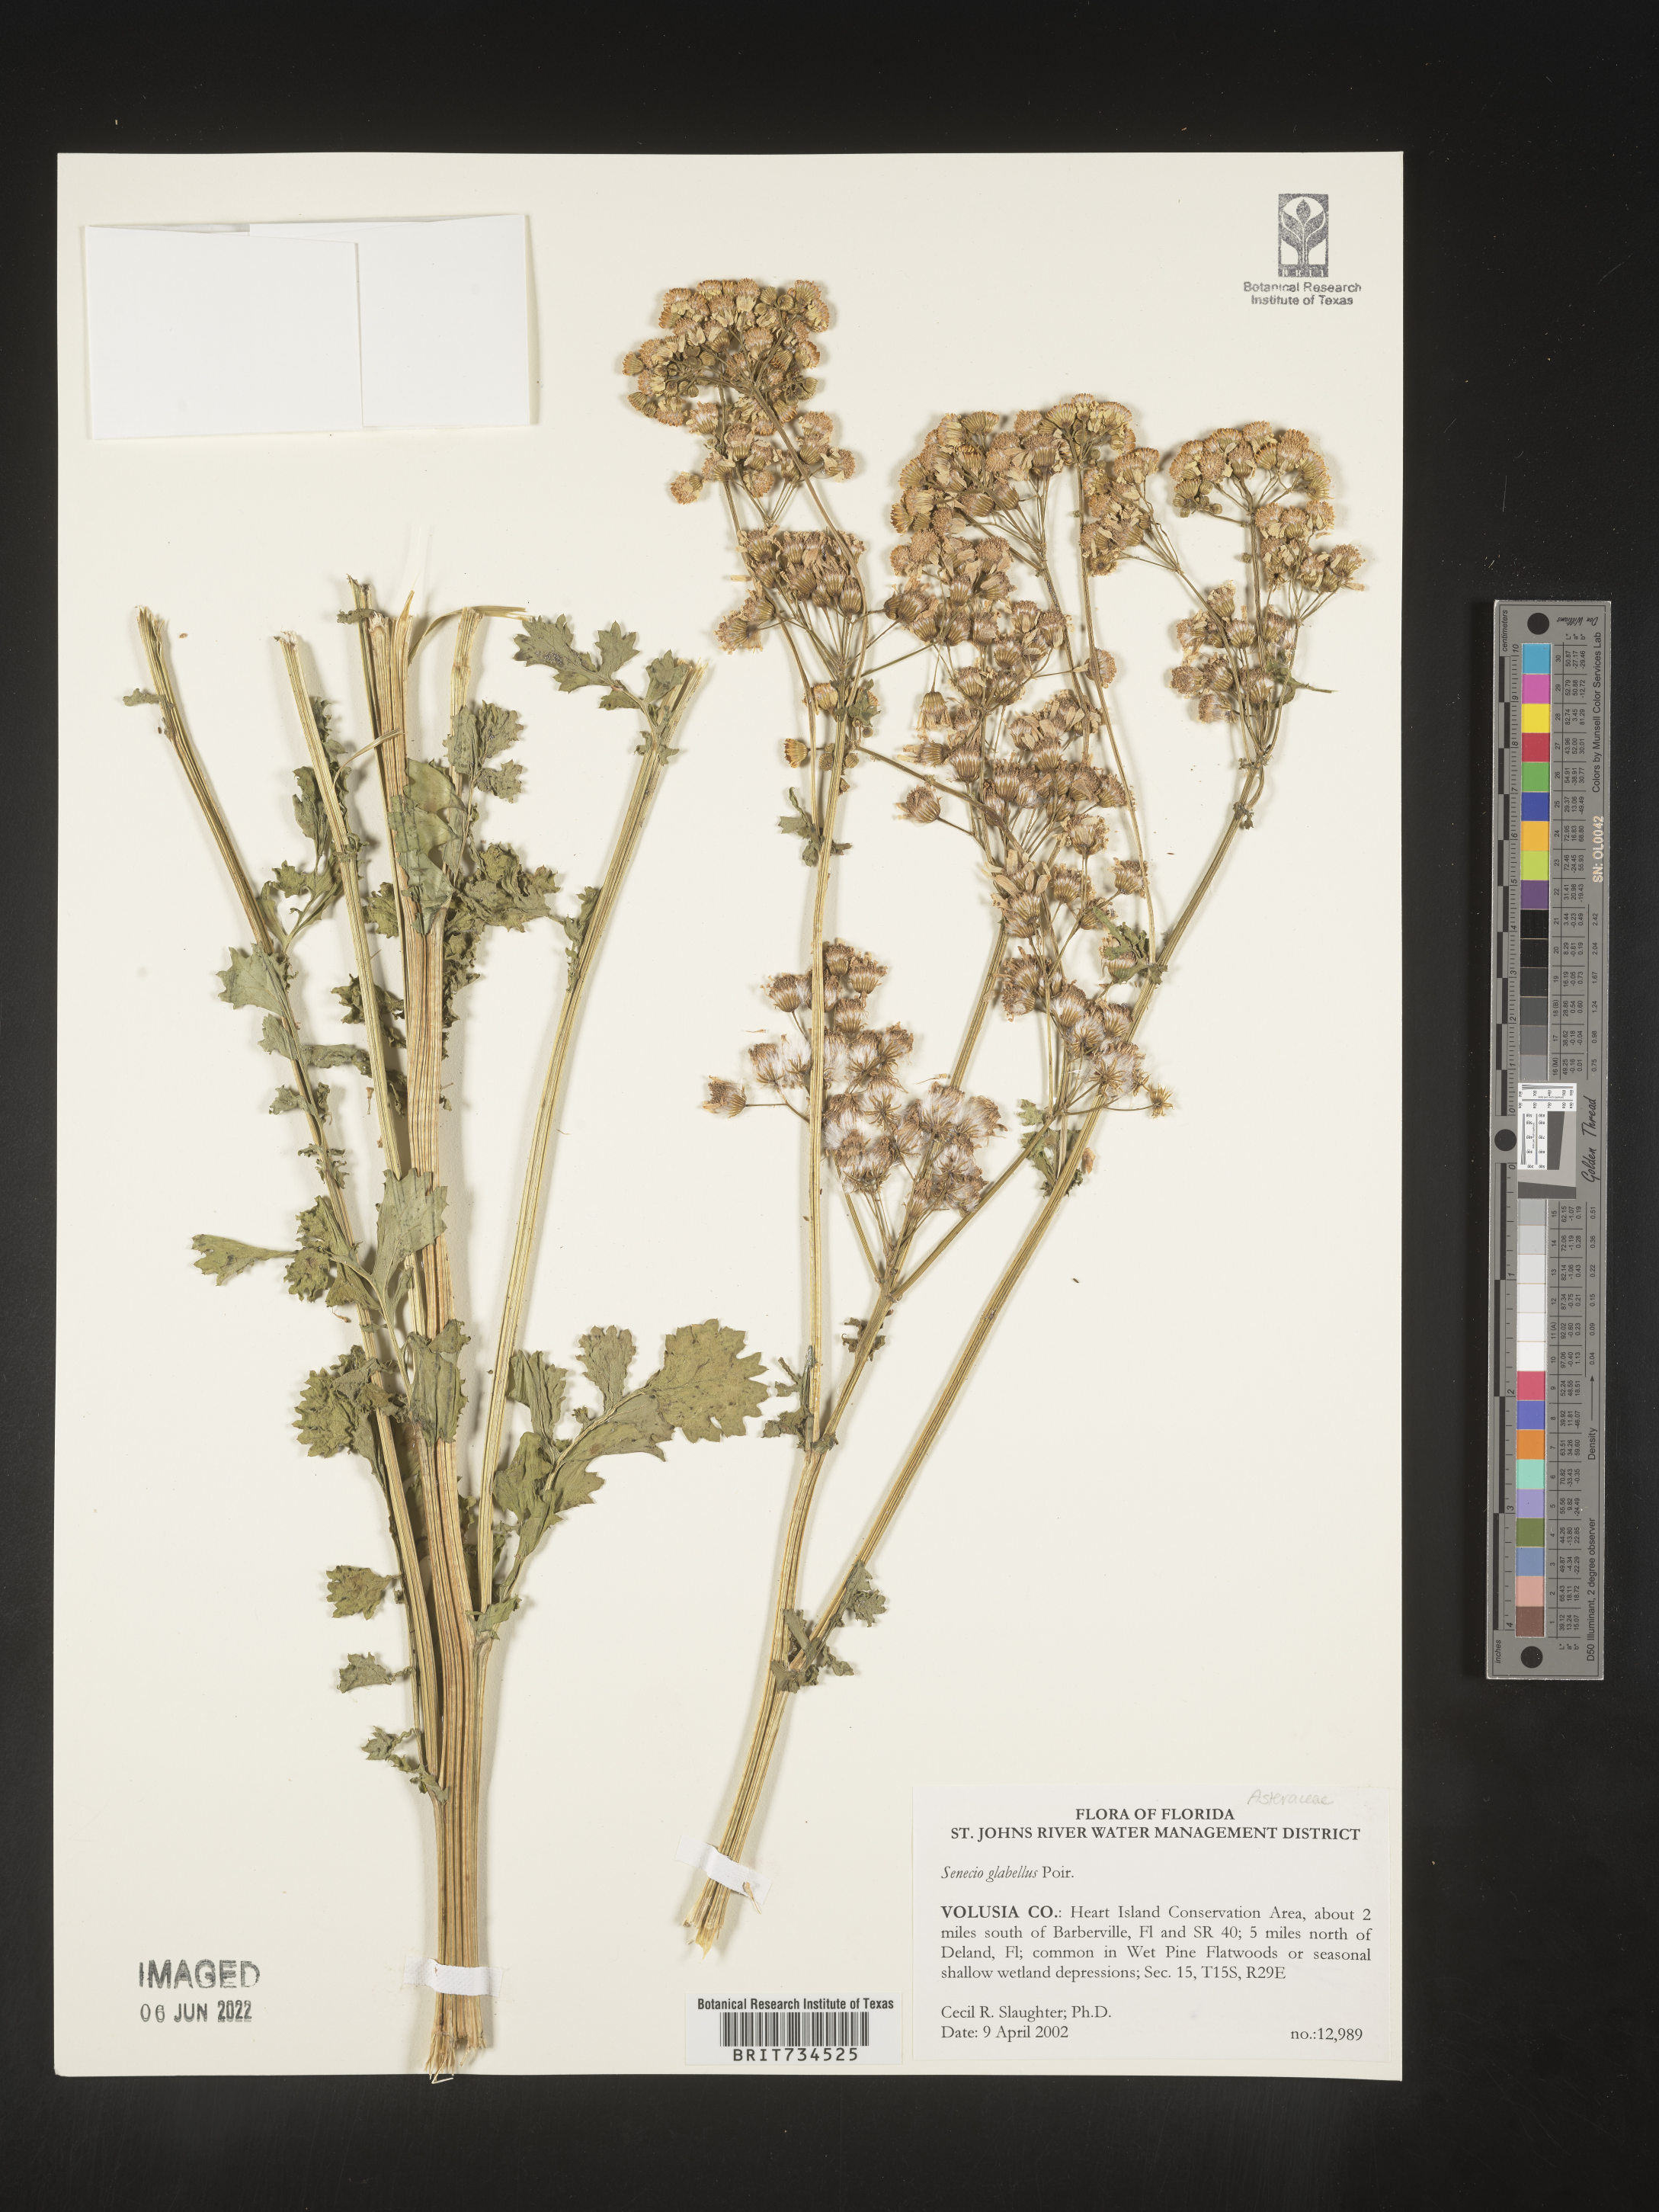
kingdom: Plantae
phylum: Tracheophyta
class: Magnoliopsida
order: Asterales
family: Asteraceae
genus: Packera
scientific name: Packera glabella
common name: Butterweed
